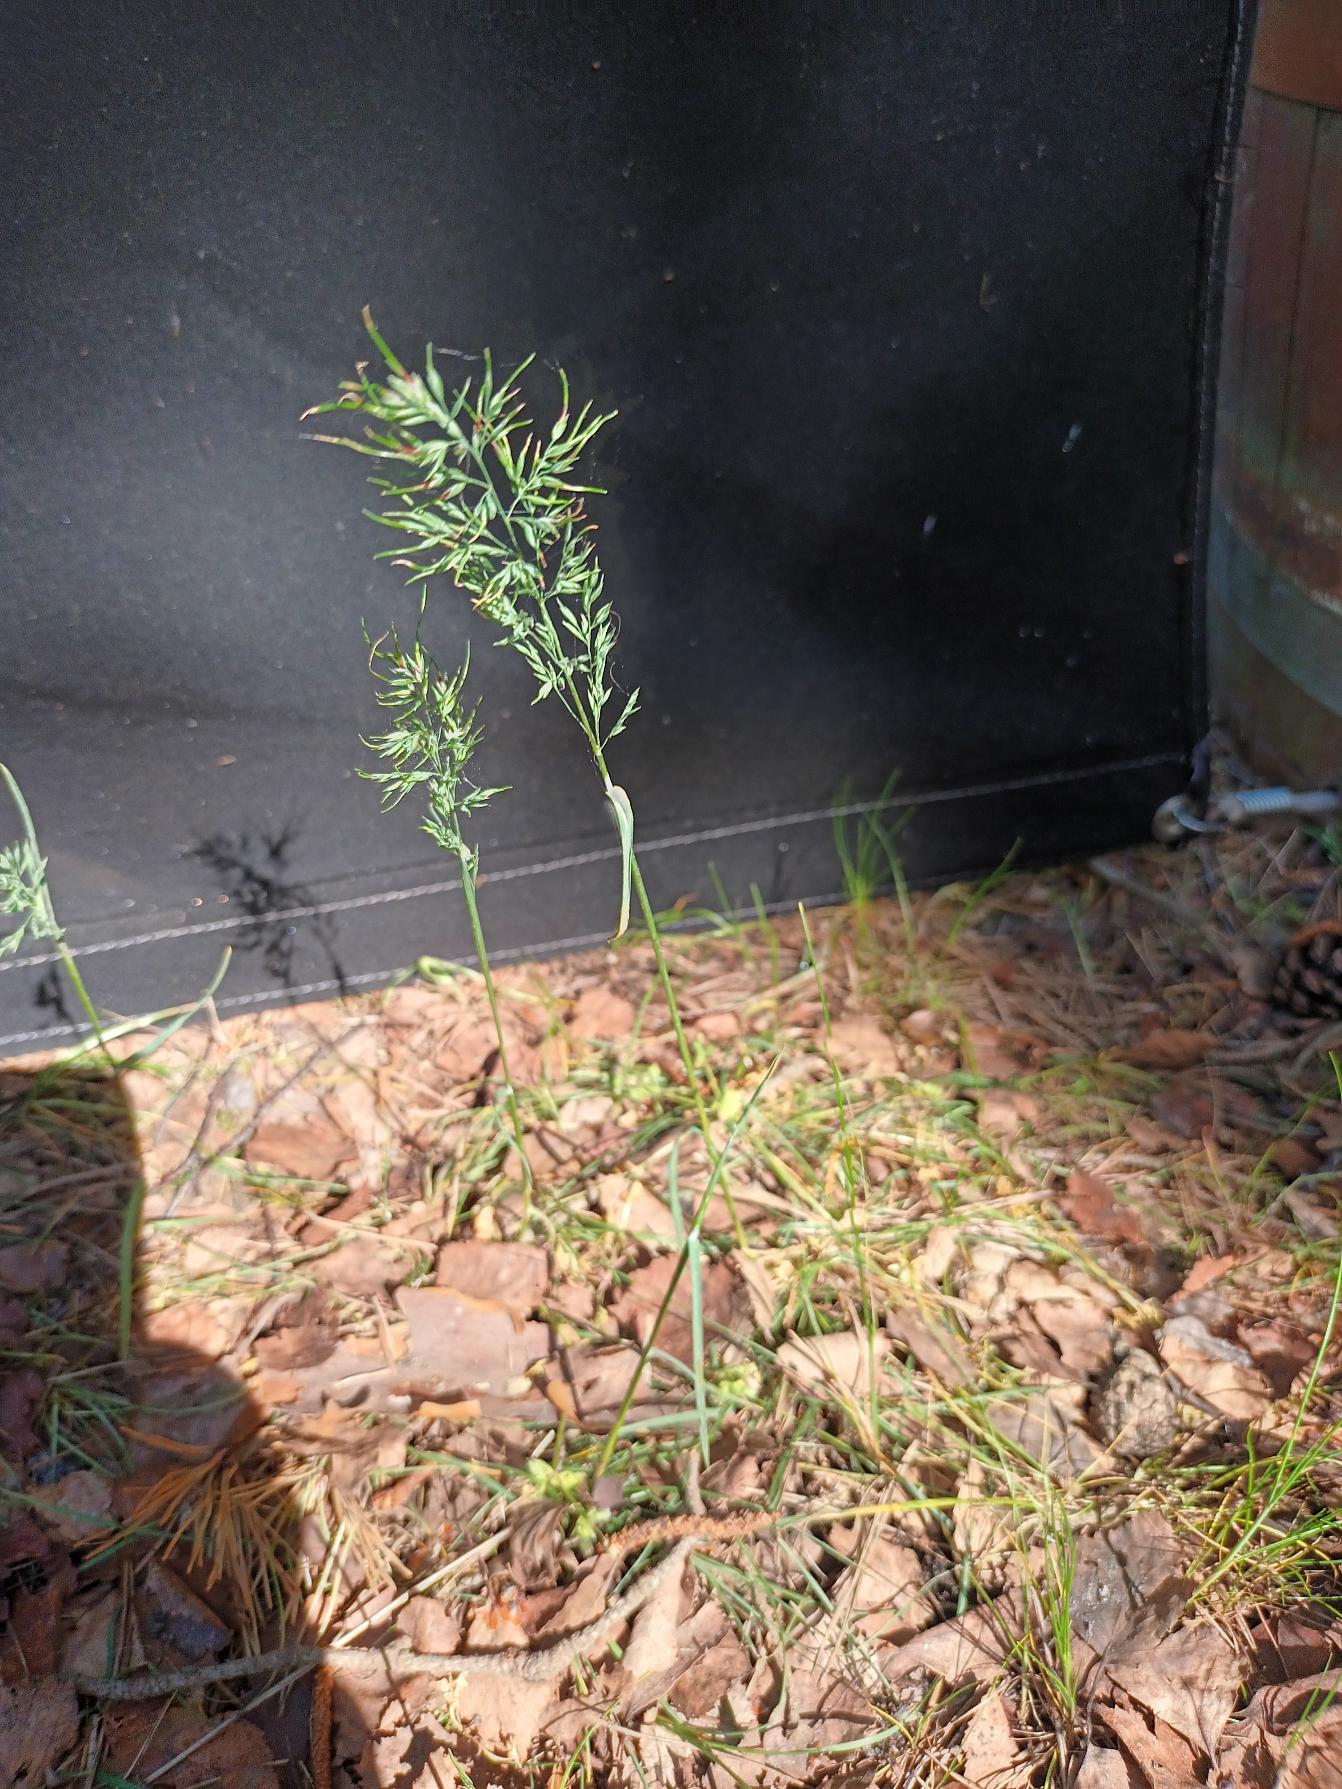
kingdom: Plantae
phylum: Tracheophyta
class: Liliopsida
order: Poales
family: Poaceae
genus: Poa
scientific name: Poa bulbosa
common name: Løg-rapgræs
